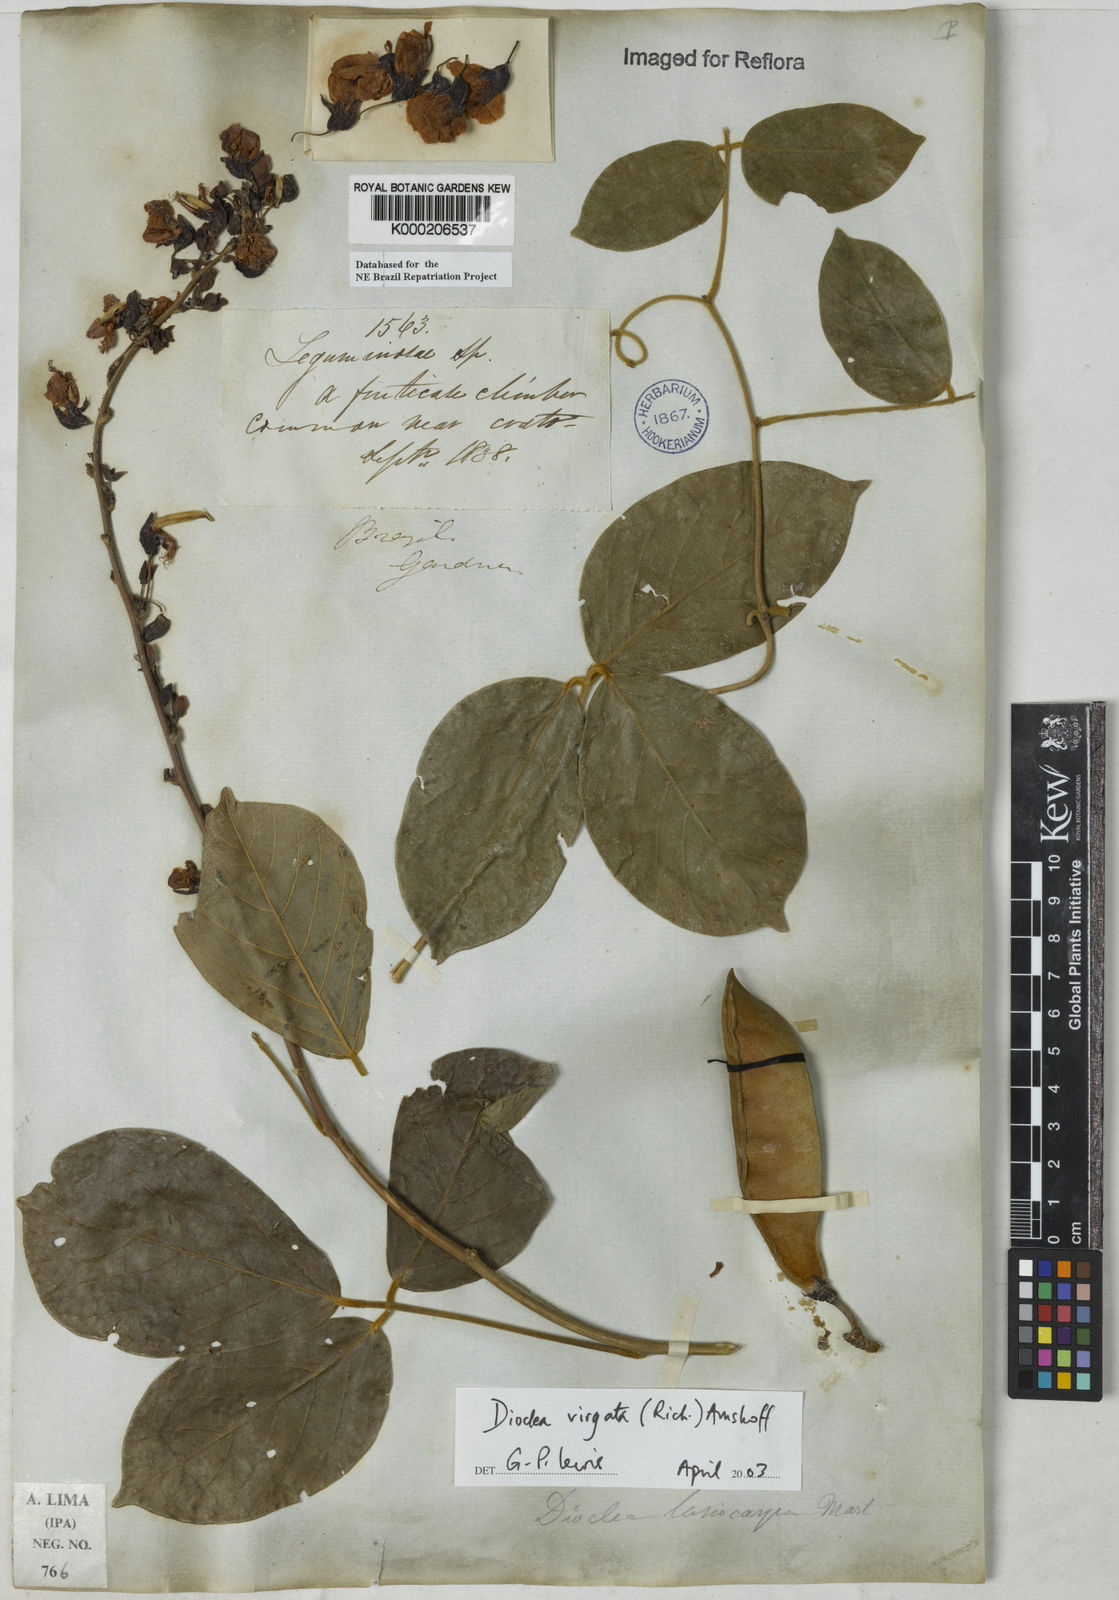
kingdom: Plantae
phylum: Tracheophyta
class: Magnoliopsida
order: Fabales
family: Fabaceae
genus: Dioclea
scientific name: Dioclea virgata
